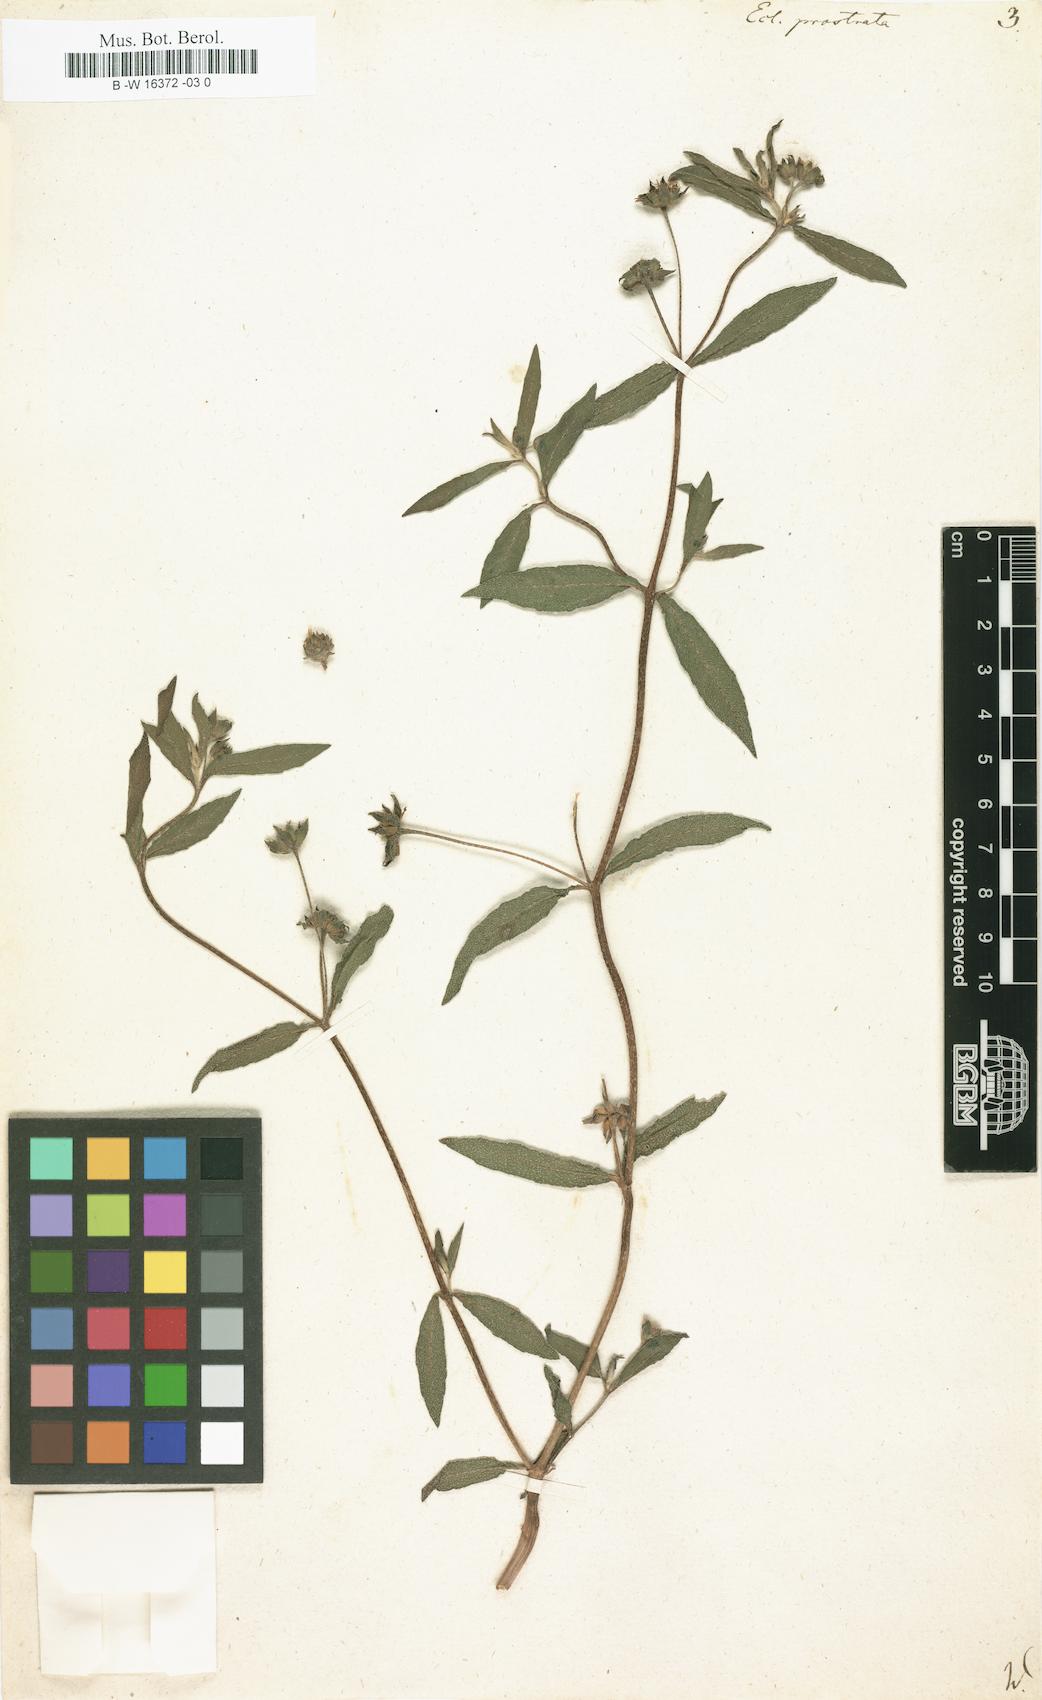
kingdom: Plantae
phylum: Tracheophyta
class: Magnoliopsida
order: Asterales
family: Asteraceae
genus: Eclipta
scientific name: Eclipta prostrata
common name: False daisy
